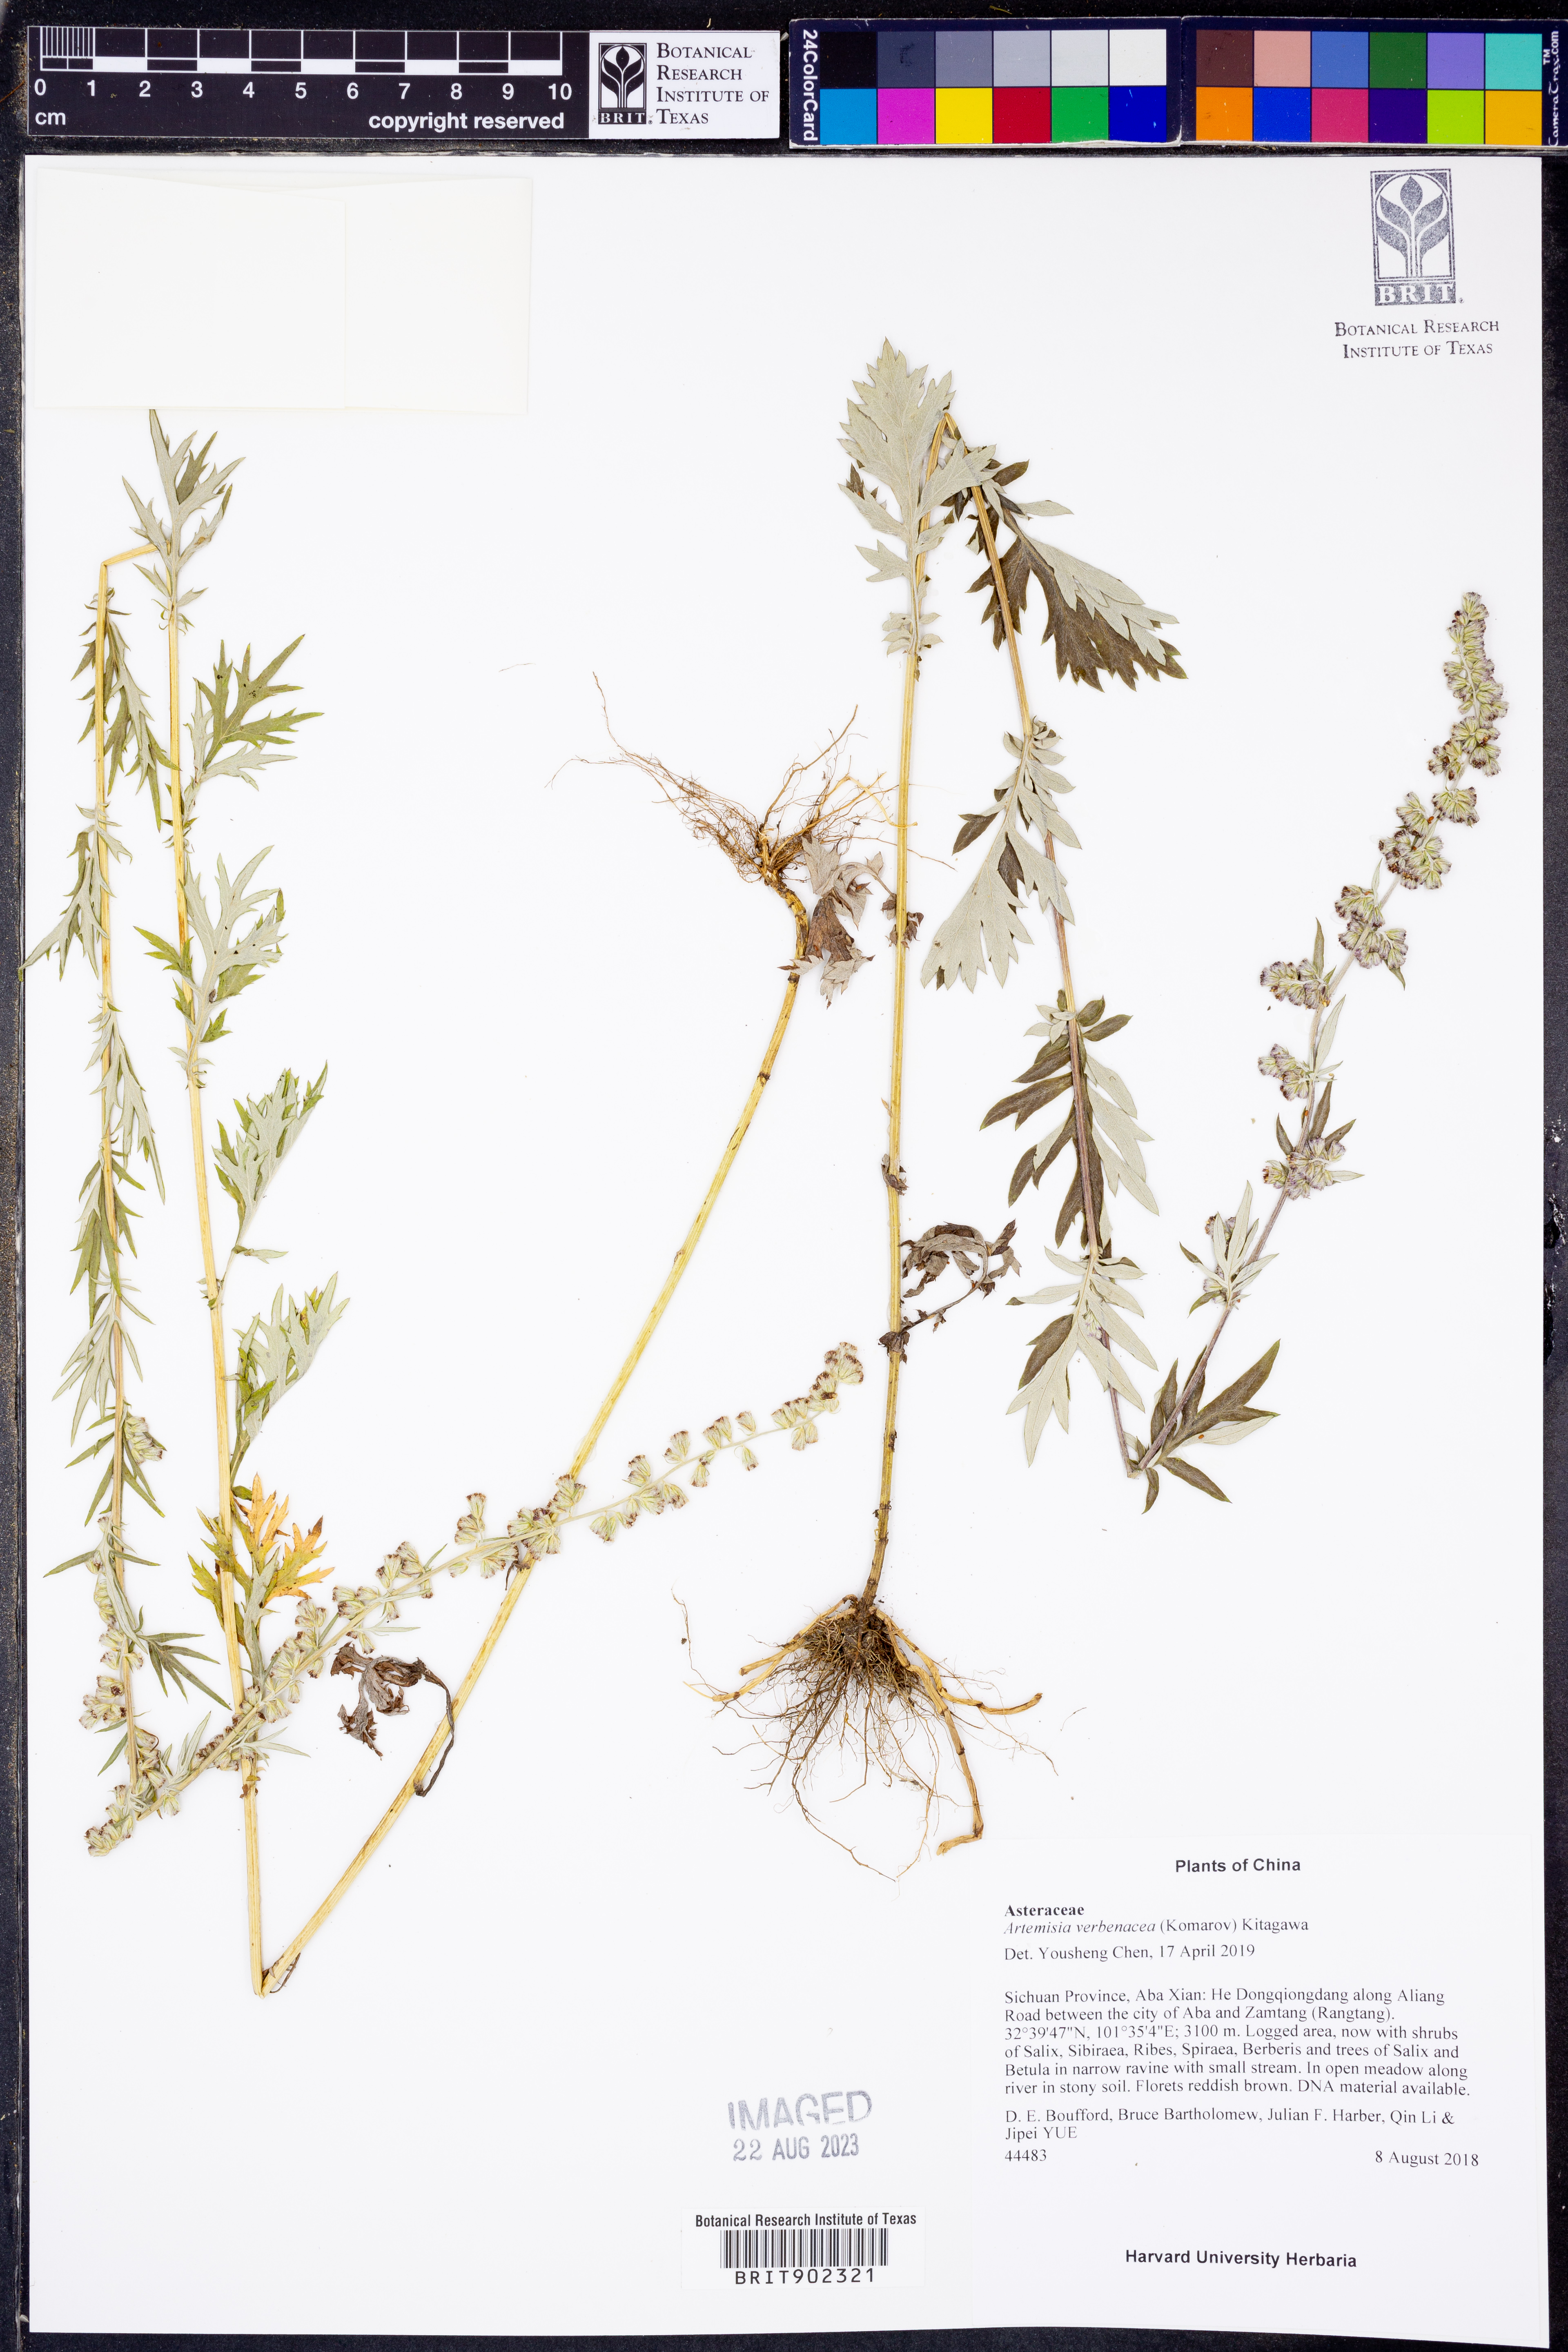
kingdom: Plantae
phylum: Tracheophyta
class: Magnoliopsida
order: Asterales
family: Asteraceae
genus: Artemisia
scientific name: Artemisia verbenacea
